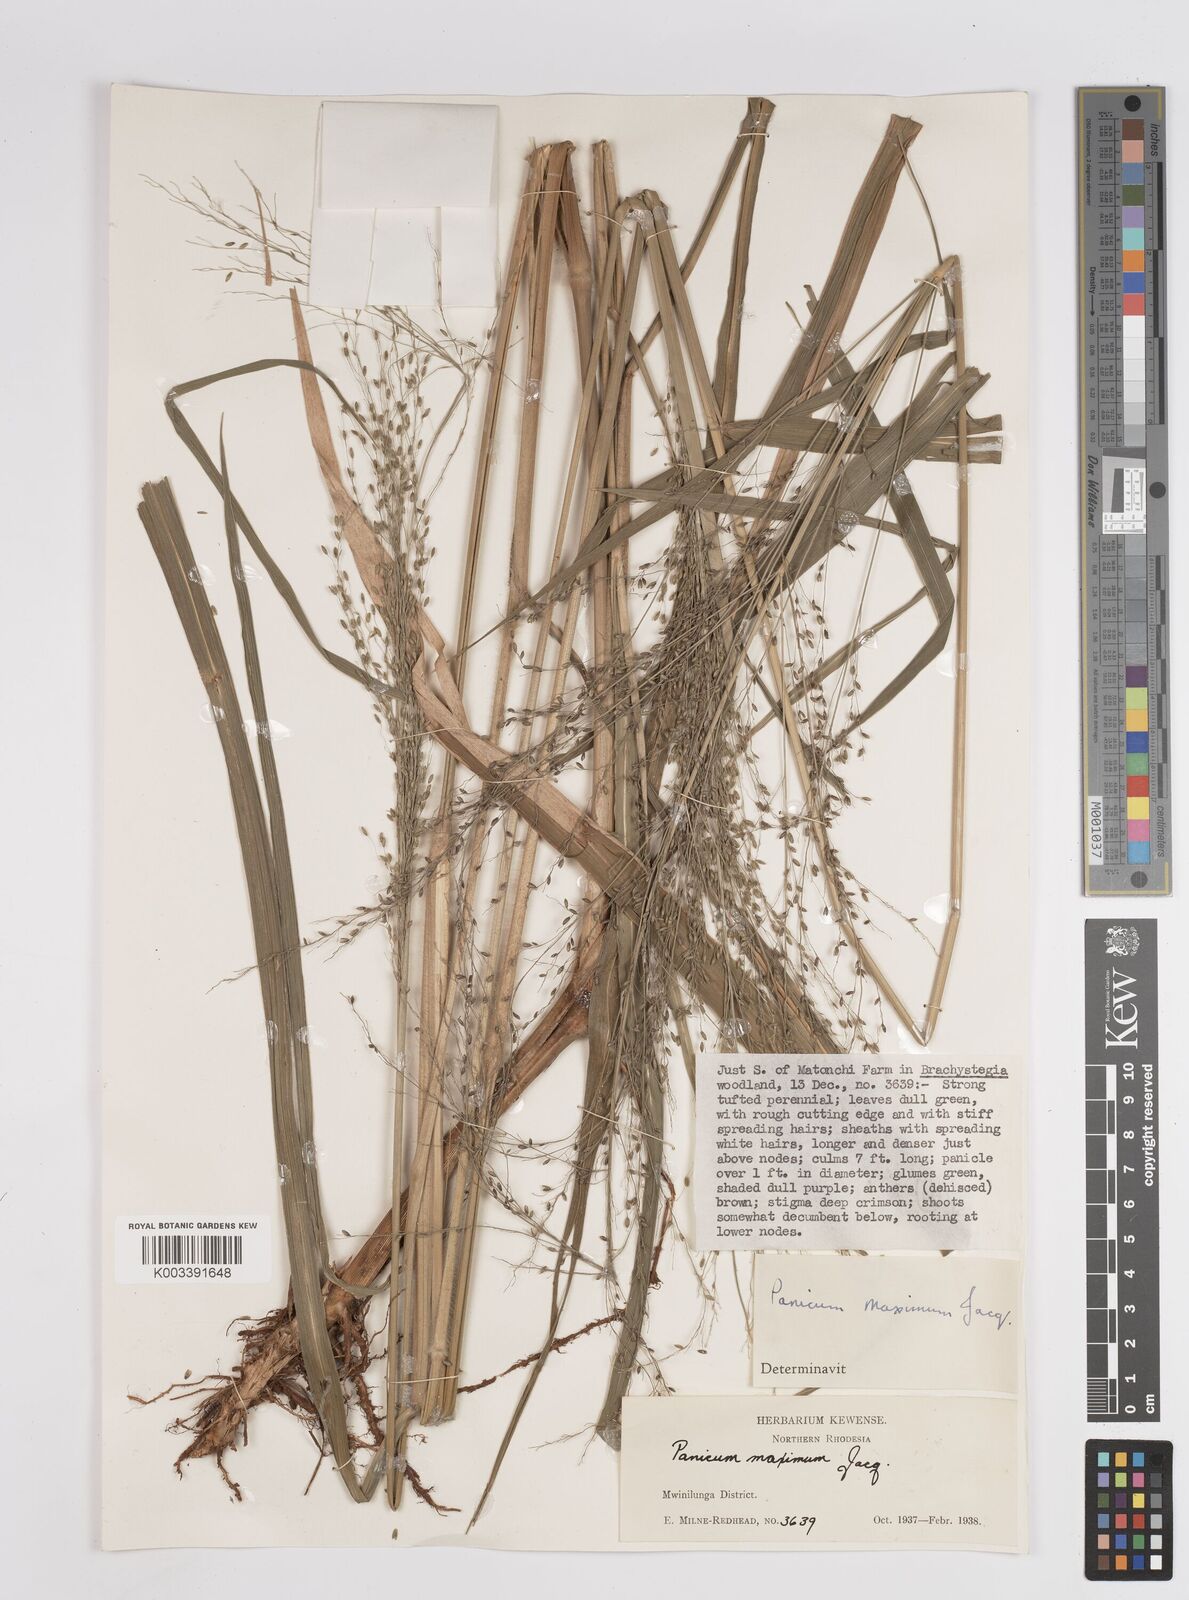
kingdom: Plantae
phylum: Tracheophyta
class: Liliopsida
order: Poales
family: Poaceae
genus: Megathyrsus
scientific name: Megathyrsus maximus
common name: Guineagrass
